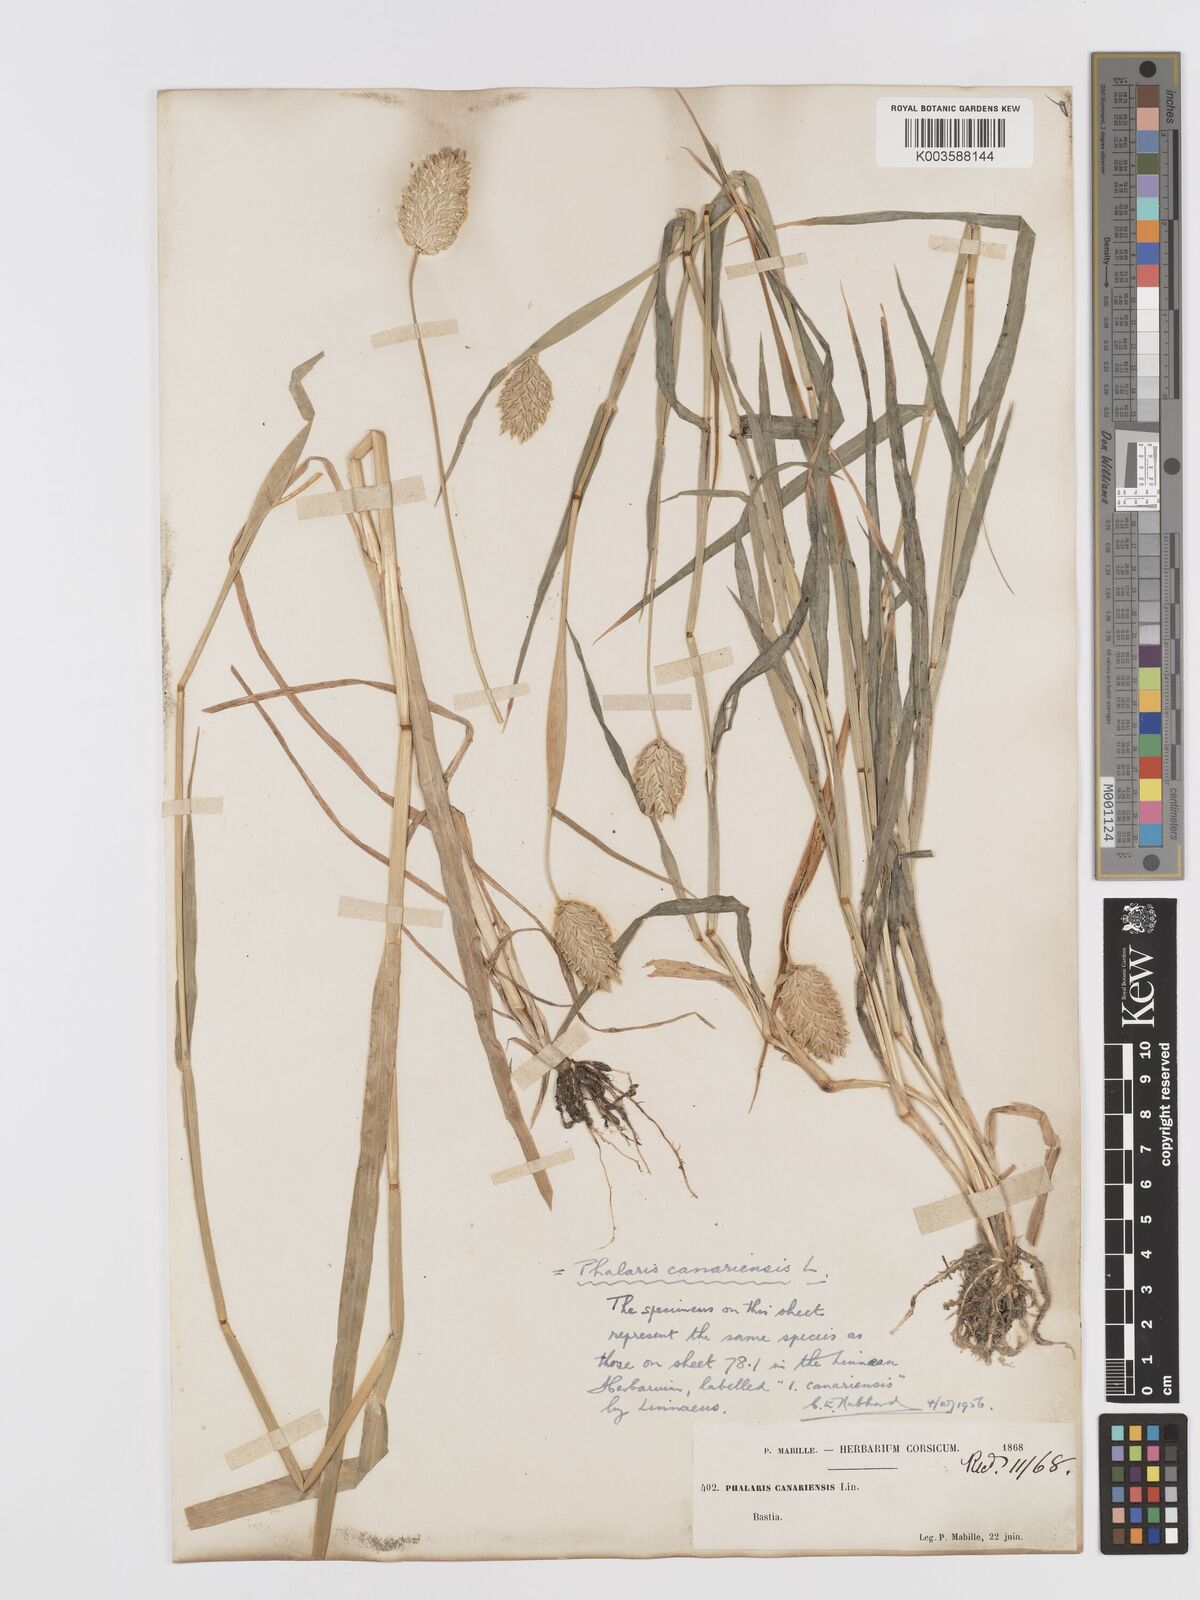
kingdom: Plantae
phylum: Tracheophyta
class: Liliopsida
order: Poales
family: Poaceae
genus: Phalaris
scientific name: Phalaris canariensis
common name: Annual canarygrass
